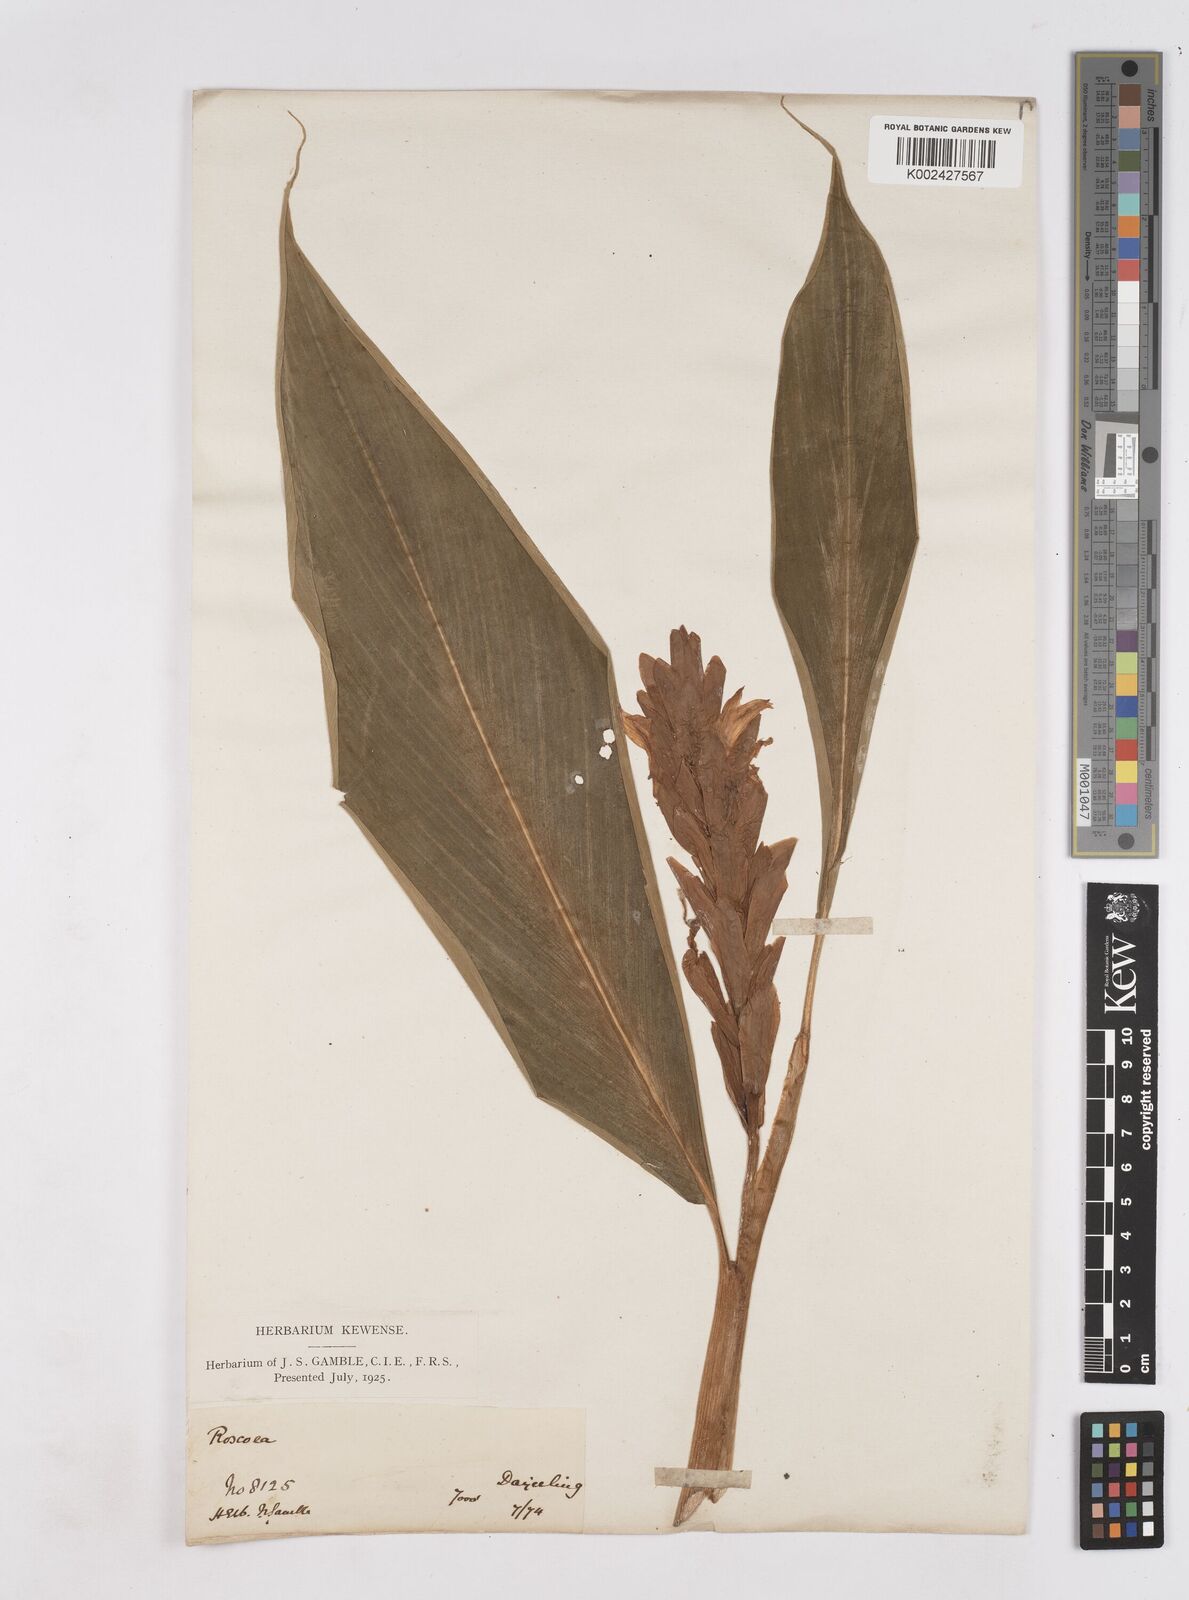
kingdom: Plantae
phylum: Tracheophyta
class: Liliopsida
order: Zingiberales
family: Zingiberaceae
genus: Cautleya
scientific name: Cautleya spicata
